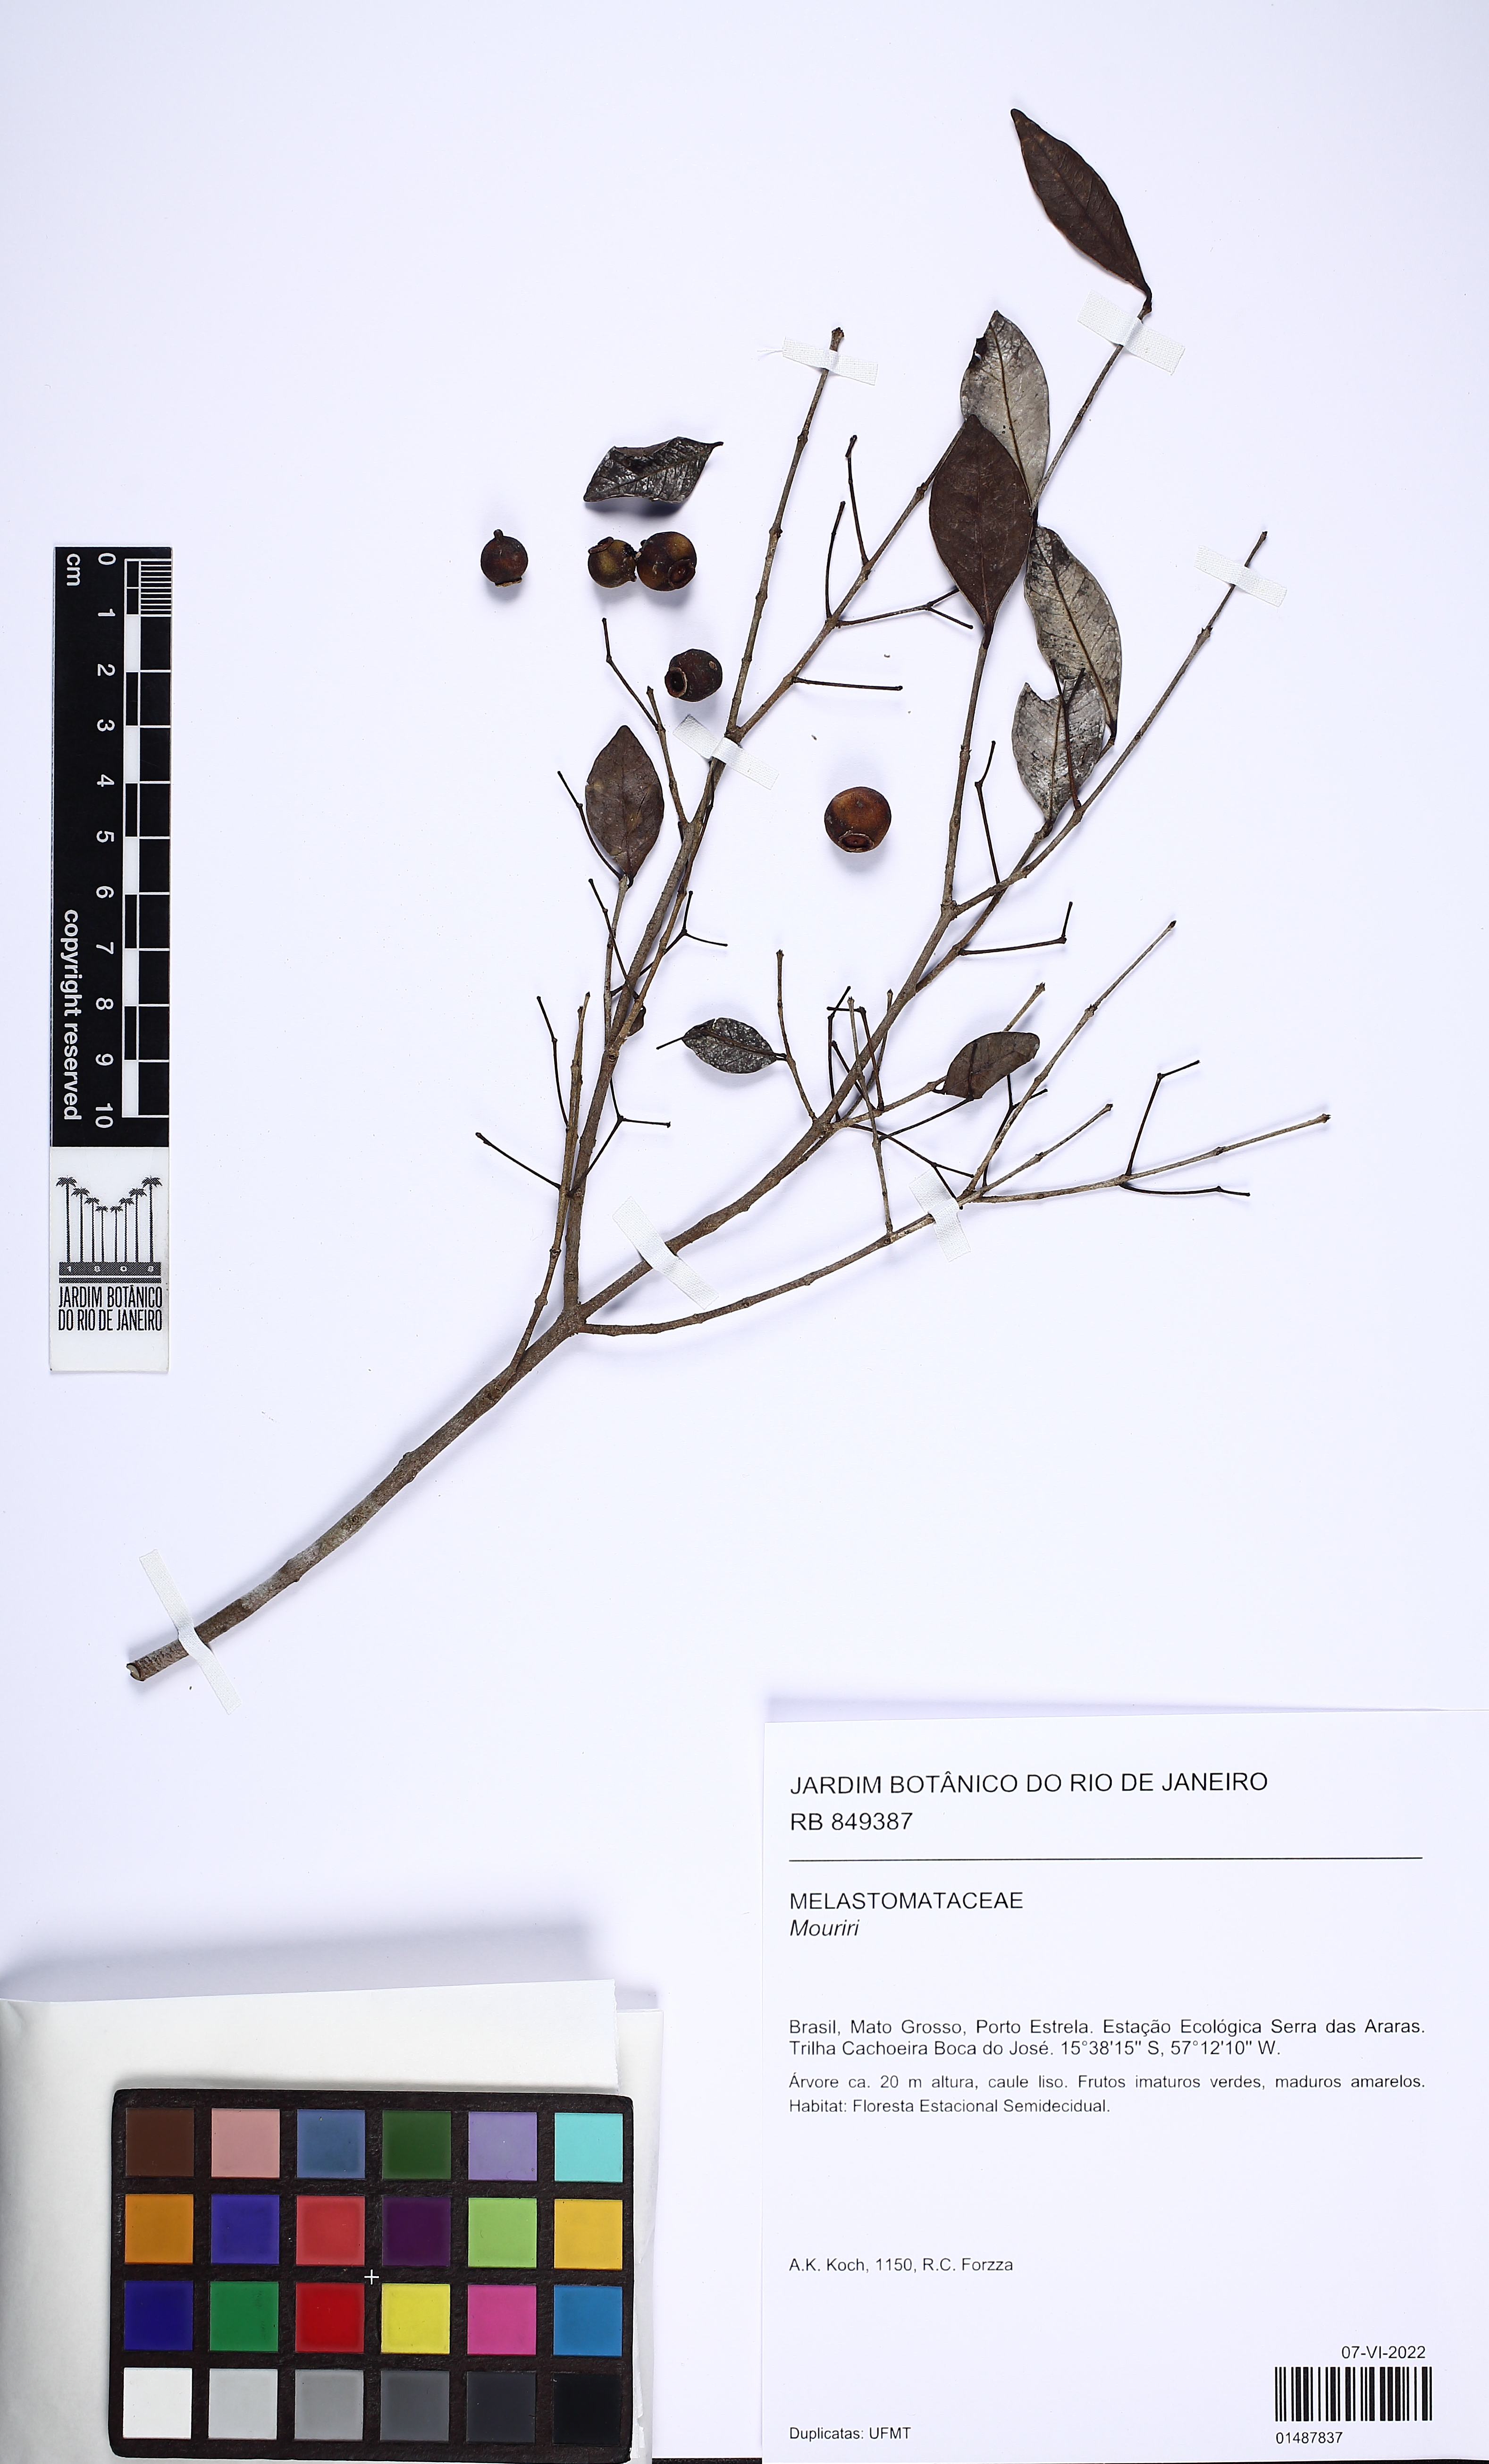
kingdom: Plantae
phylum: Tracheophyta
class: Magnoliopsida
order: Myrtales
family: Myrtaceae
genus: Eugenia
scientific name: Eugenia
